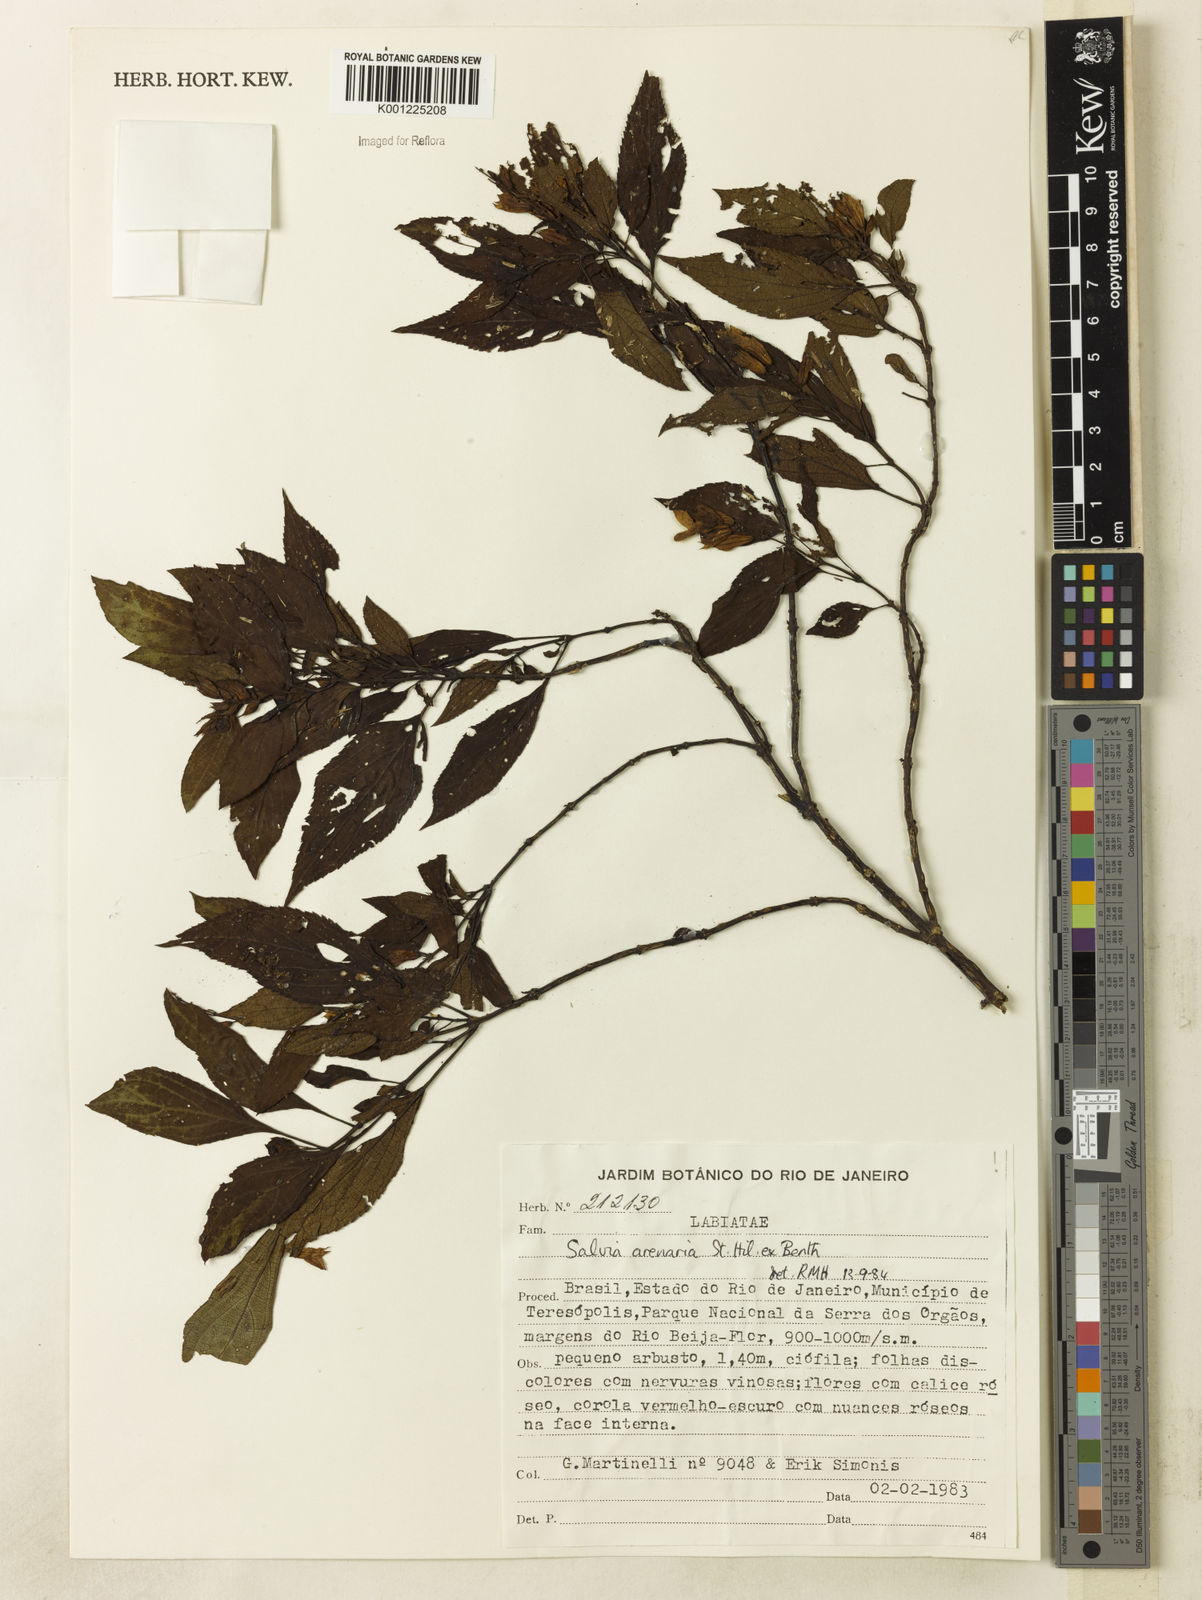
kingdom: Plantae
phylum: Tracheophyta
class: Magnoliopsida
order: Lamiales
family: Lamiaceae
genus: Salvia
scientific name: Salvia arenaria
